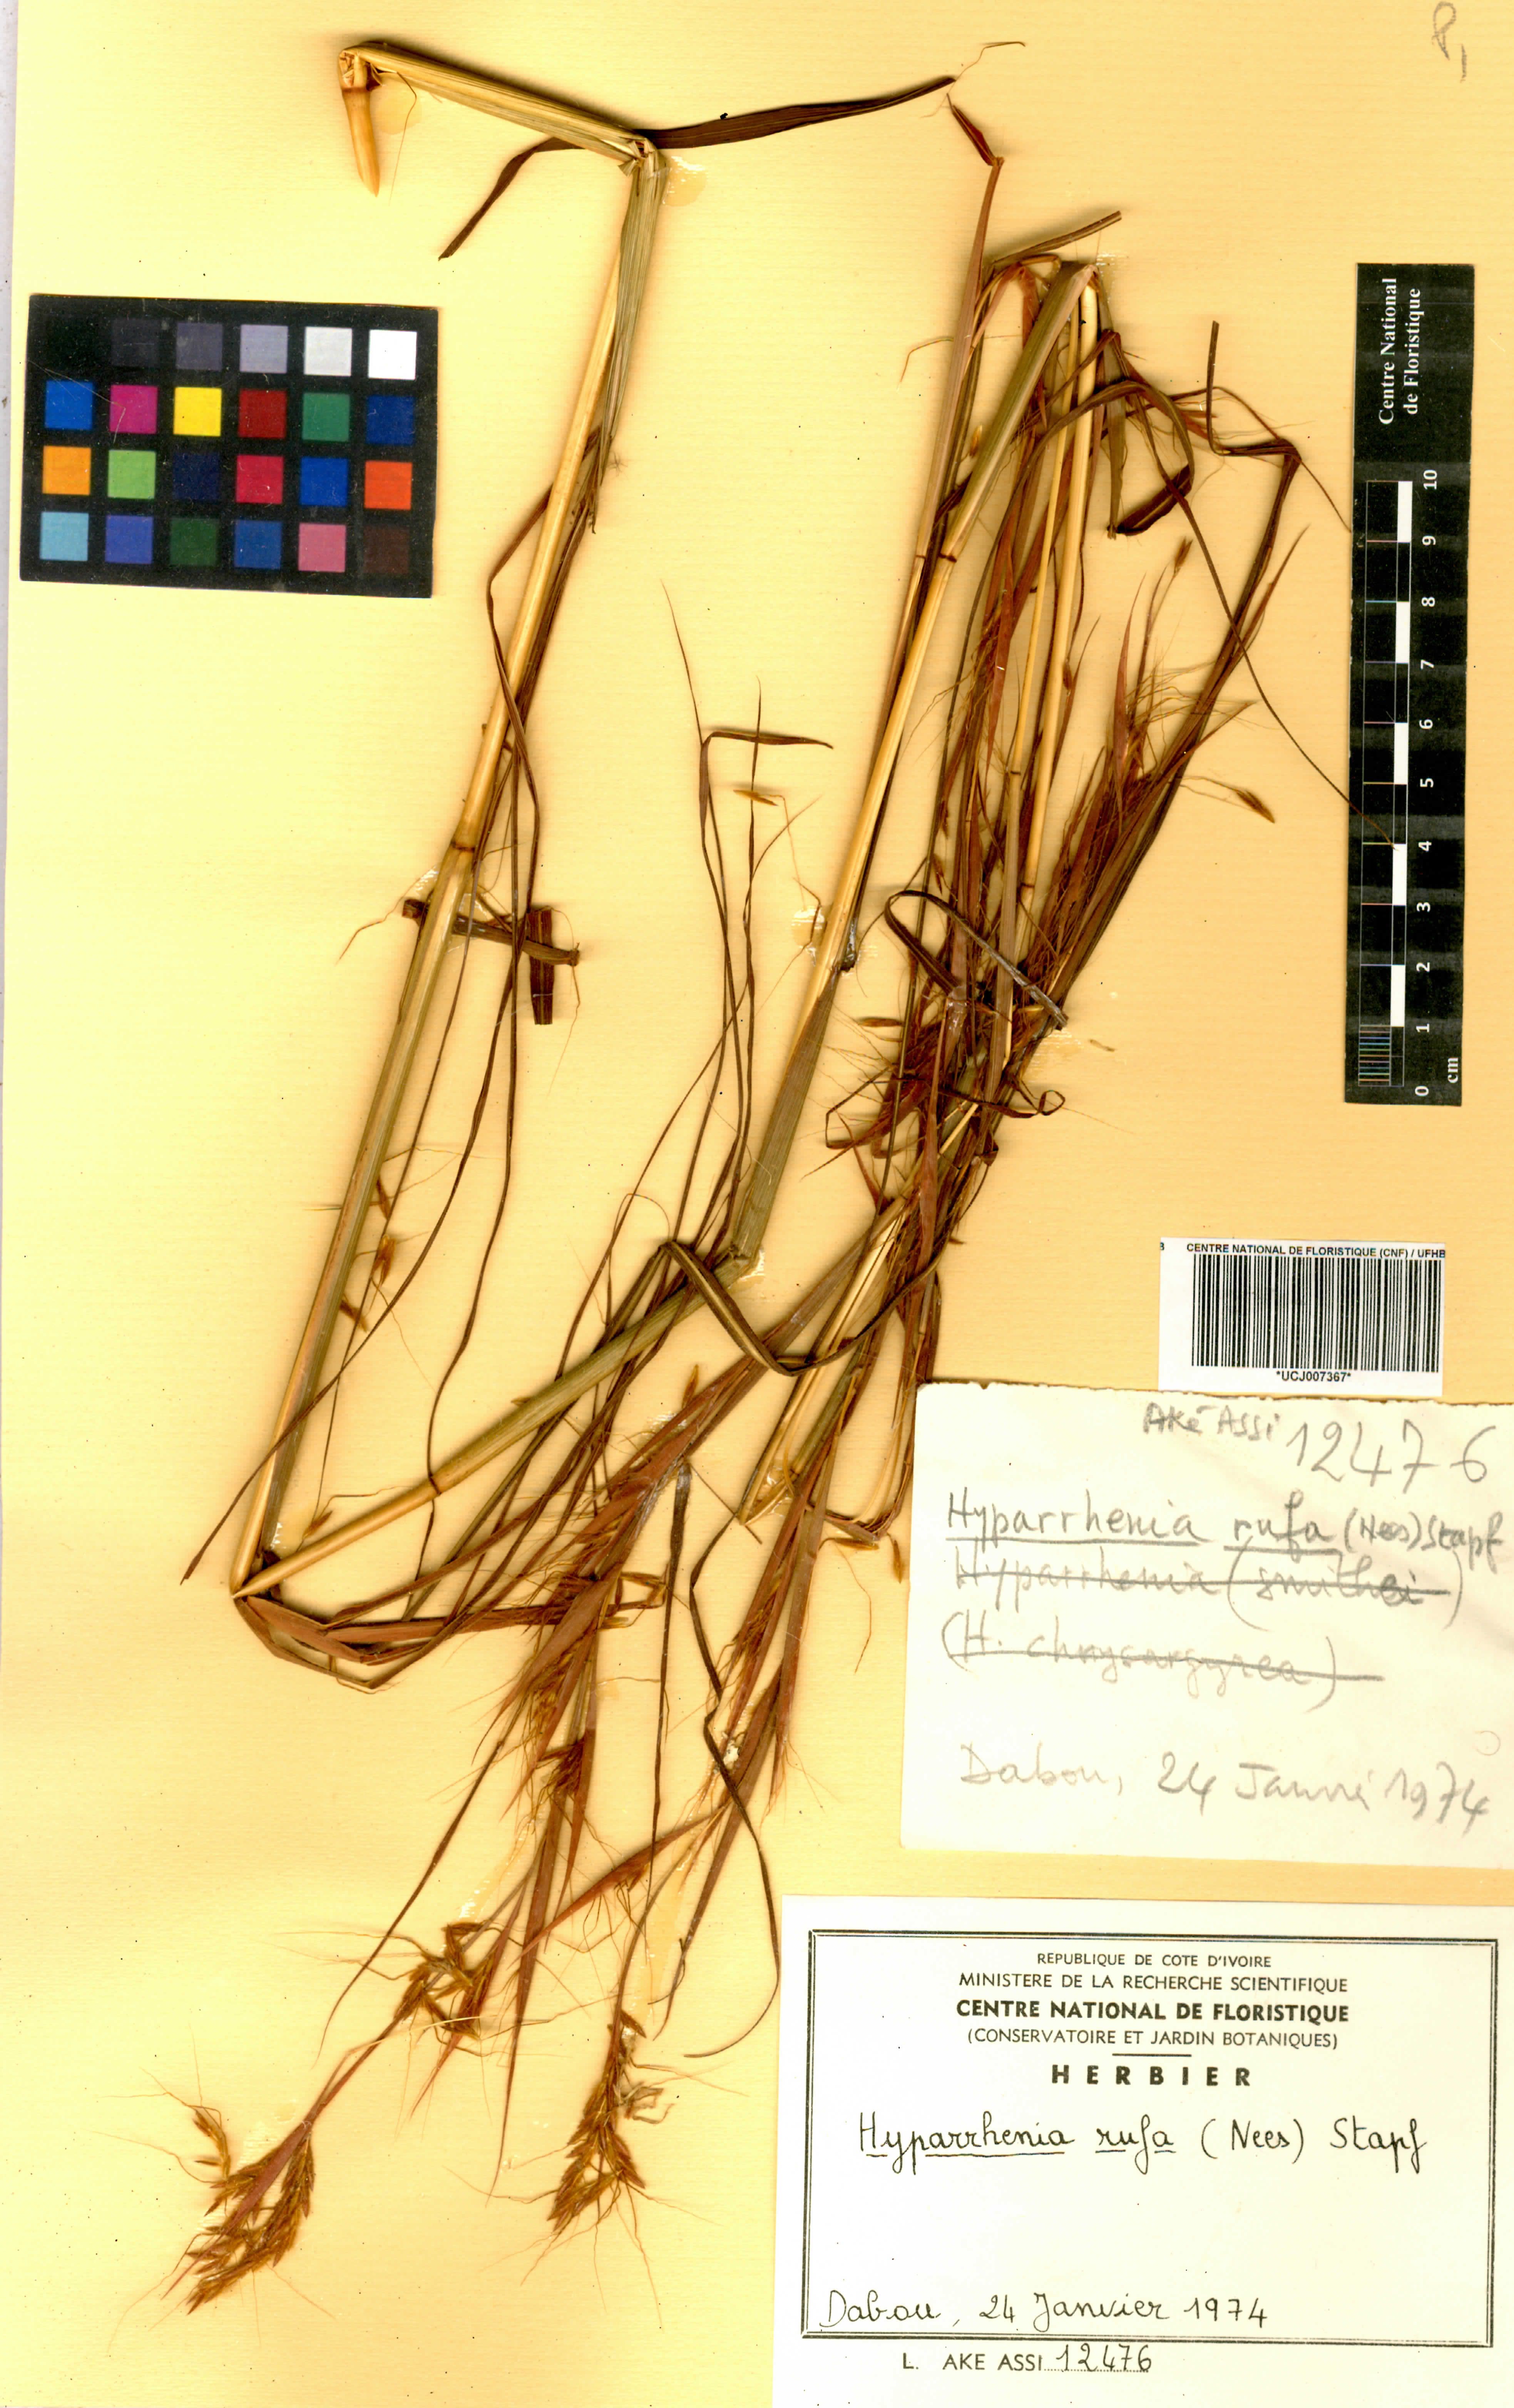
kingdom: Plantae
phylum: Tracheophyta
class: Liliopsida
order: Poales
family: Poaceae
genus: Hyparrhenia
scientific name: Hyparrhenia rufa
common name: Jaraguagrass
